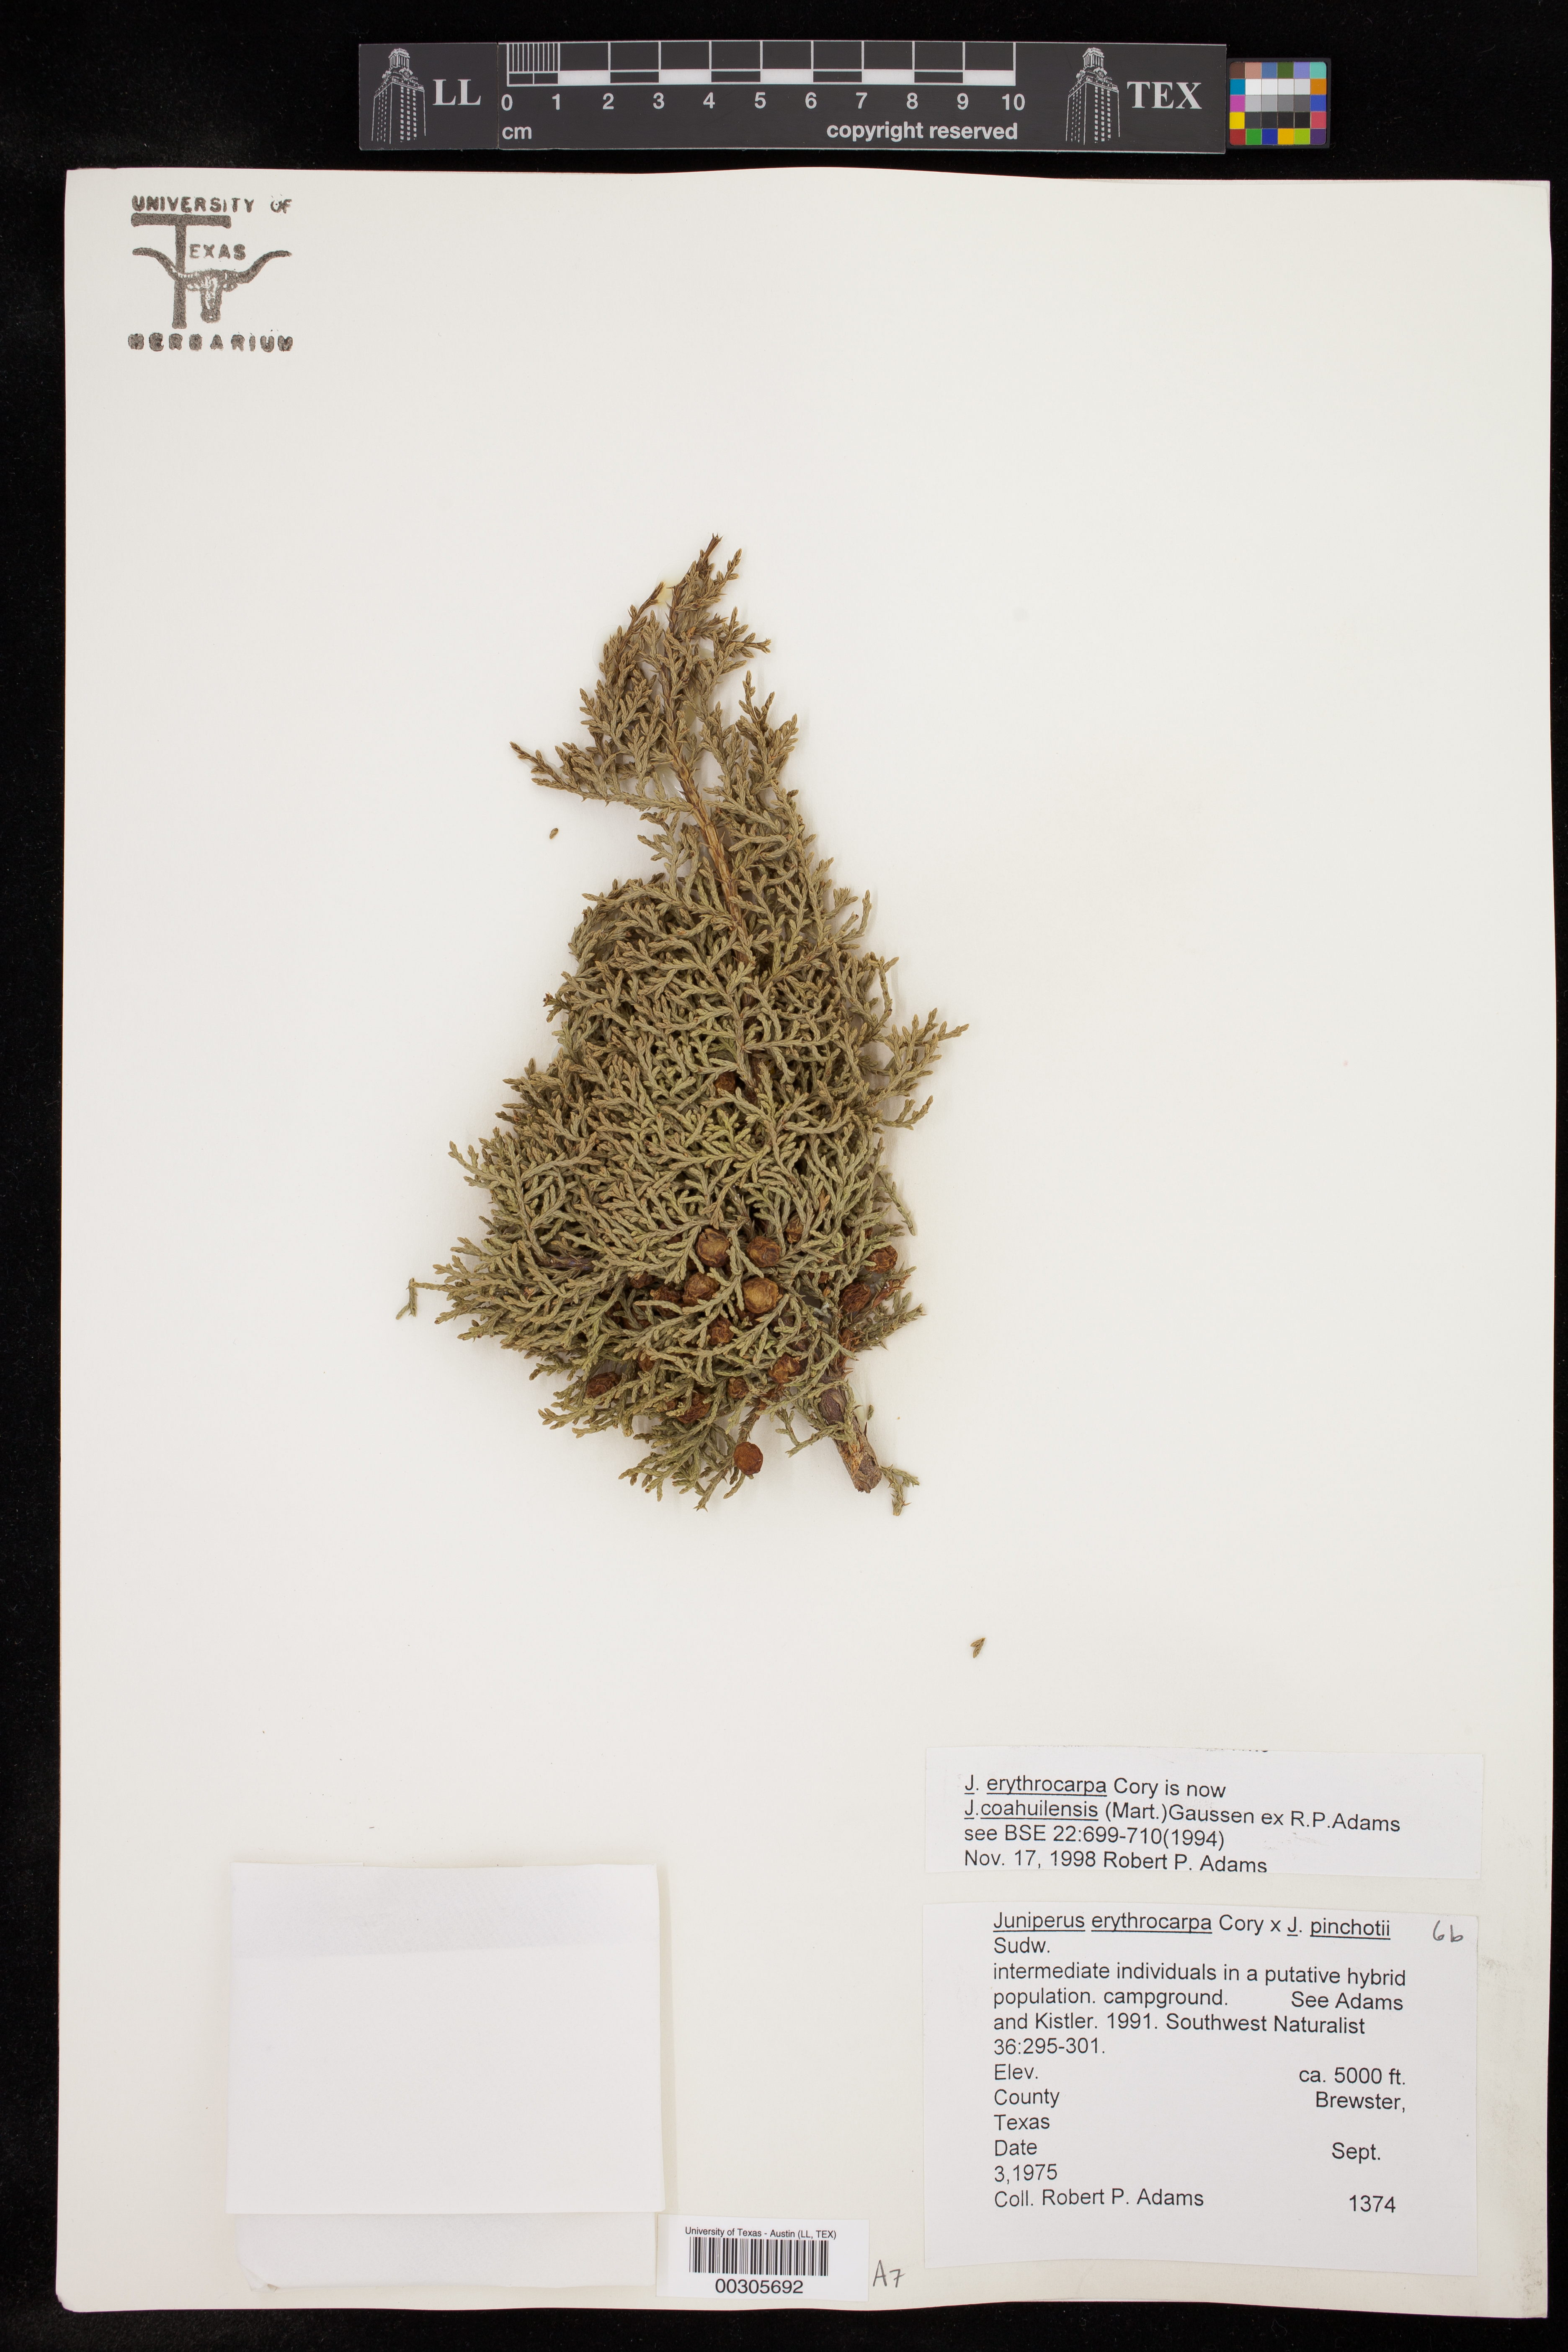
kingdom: Plantae
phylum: Tracheophyta
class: Pinopsida
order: Pinales
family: Cupressaceae
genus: Juniperus
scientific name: Juniperus coahuilensis
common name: Roseberry
